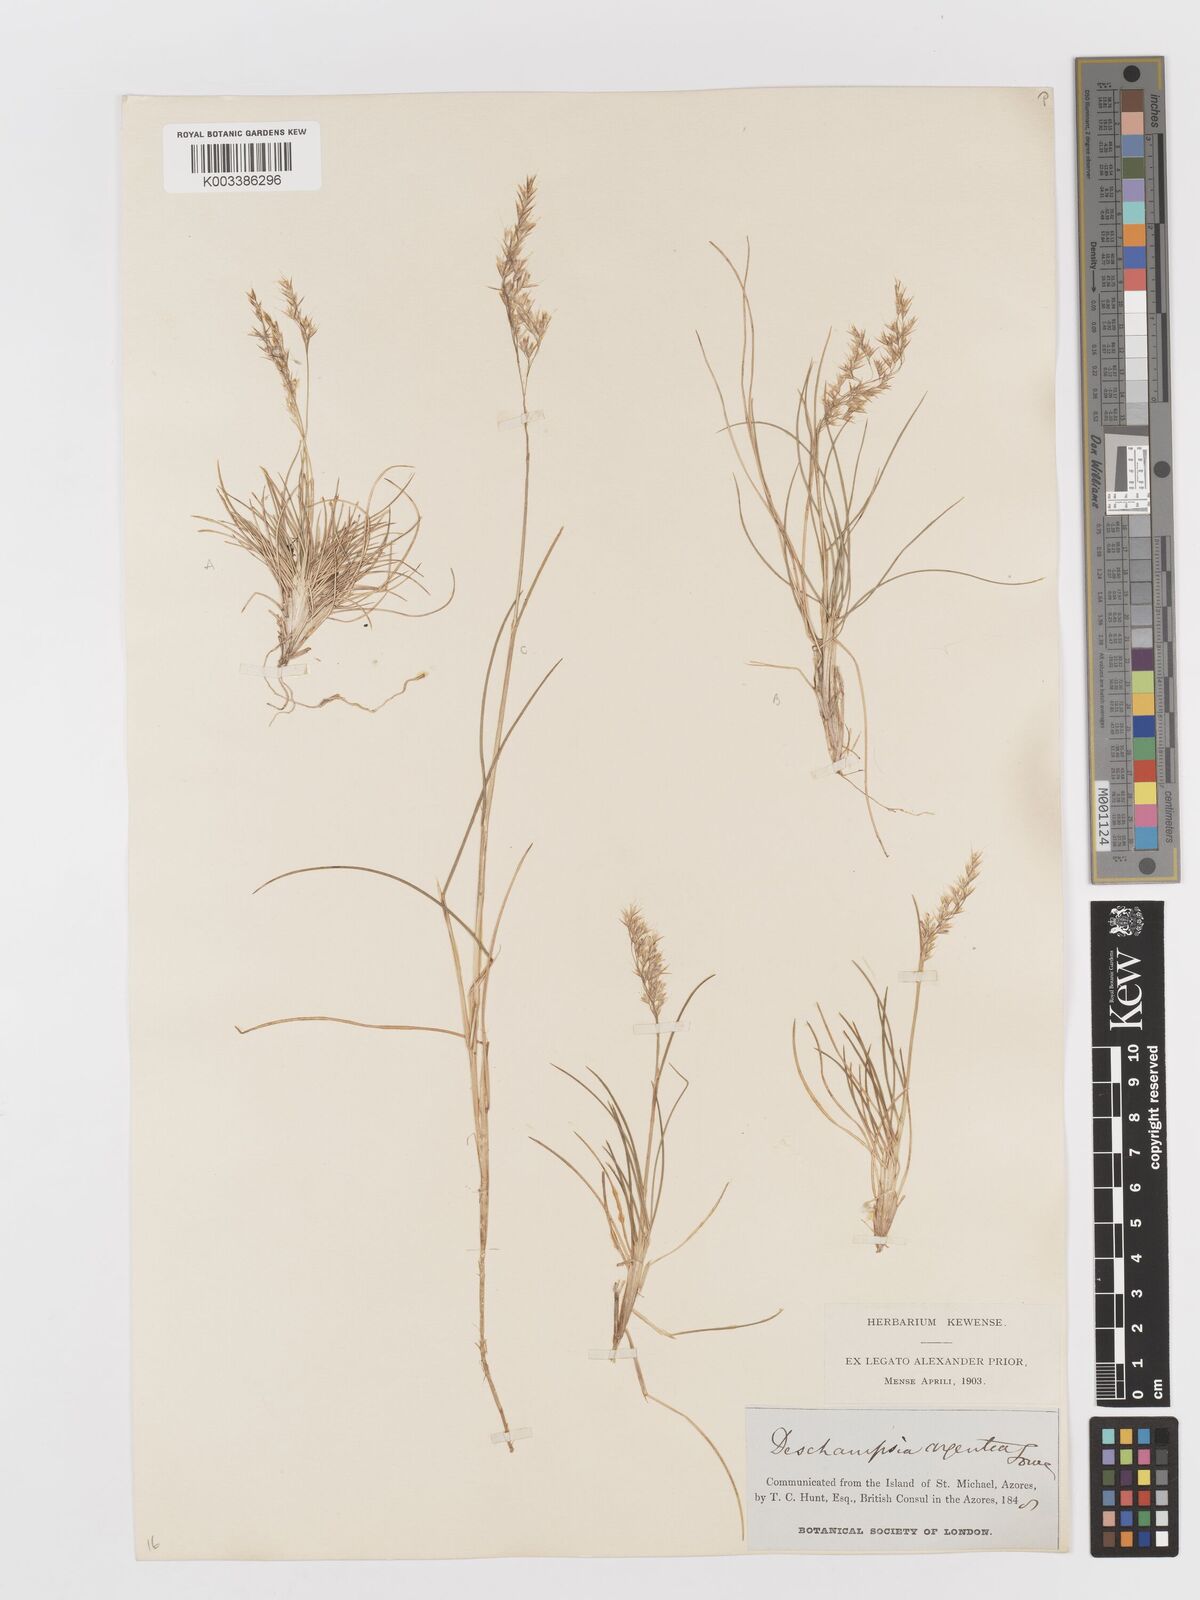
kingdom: Plantae
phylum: Tracheophyta
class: Liliopsida
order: Poales
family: Poaceae
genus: Avenella
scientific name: Avenella foliosa
